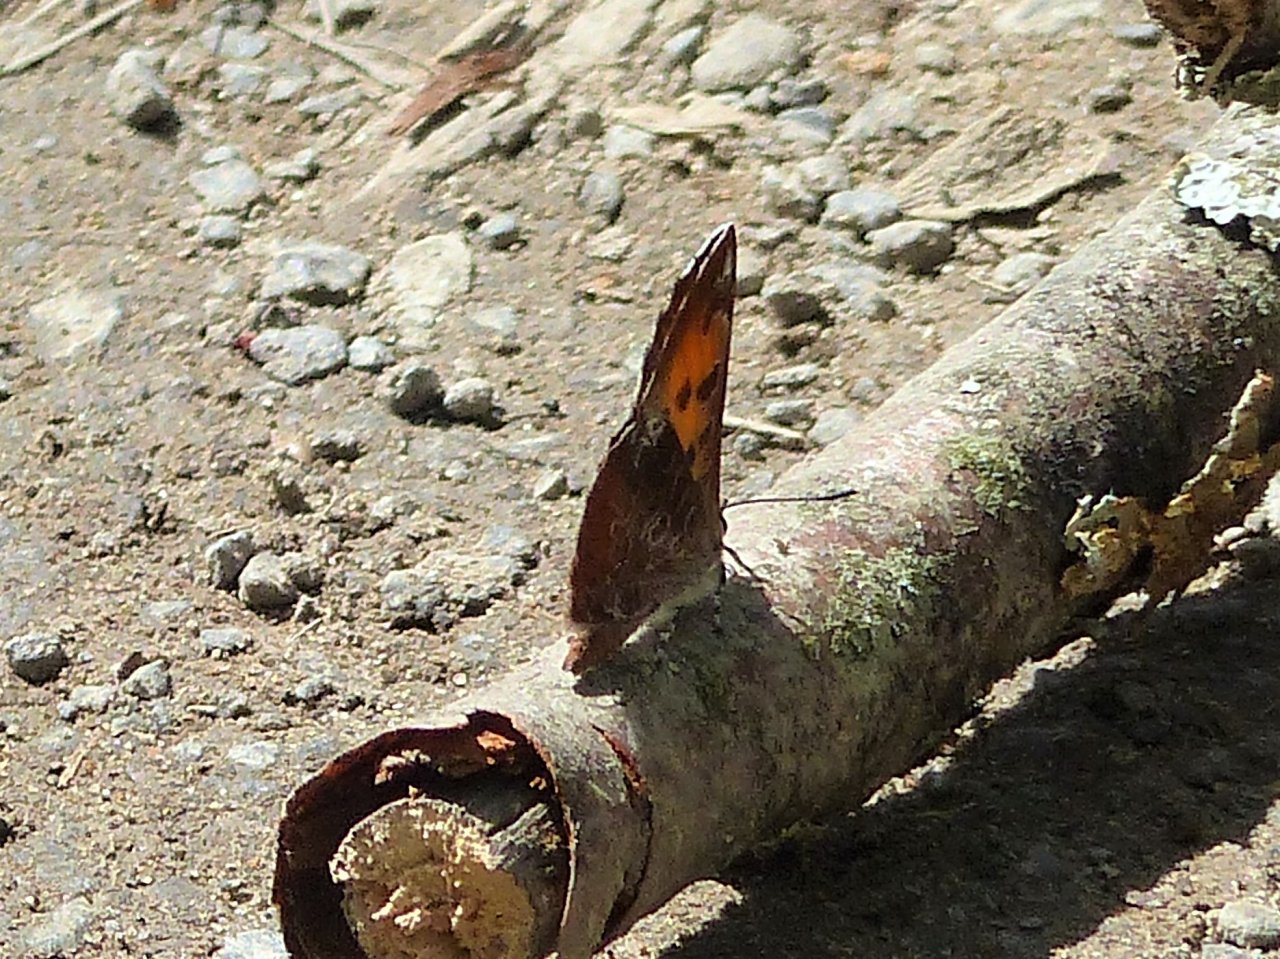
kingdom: Animalia
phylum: Arthropoda
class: Insecta
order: Lepidoptera
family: Lycaenidae
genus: Feniseca
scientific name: Feniseca tarquinius
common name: Harvester
